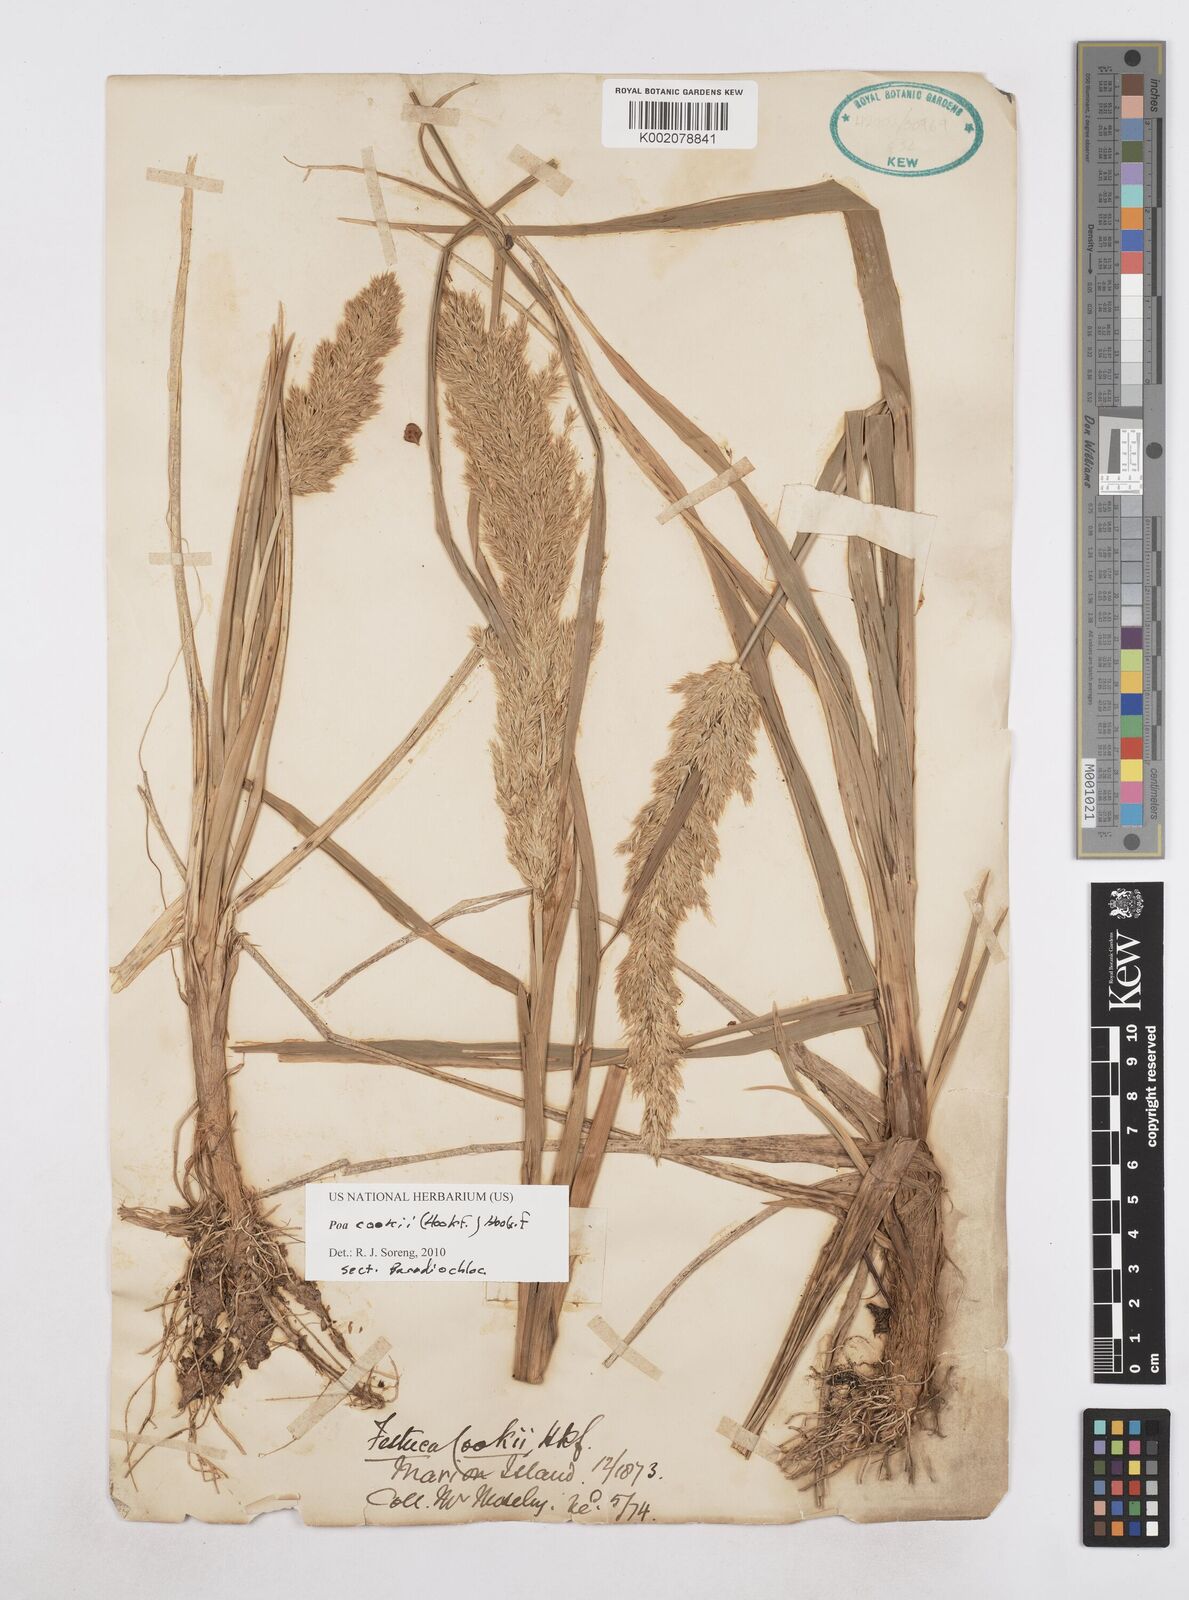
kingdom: Plantae
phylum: Tracheophyta
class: Liliopsida
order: Poales
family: Poaceae
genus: Poa
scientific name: Poa cookii
